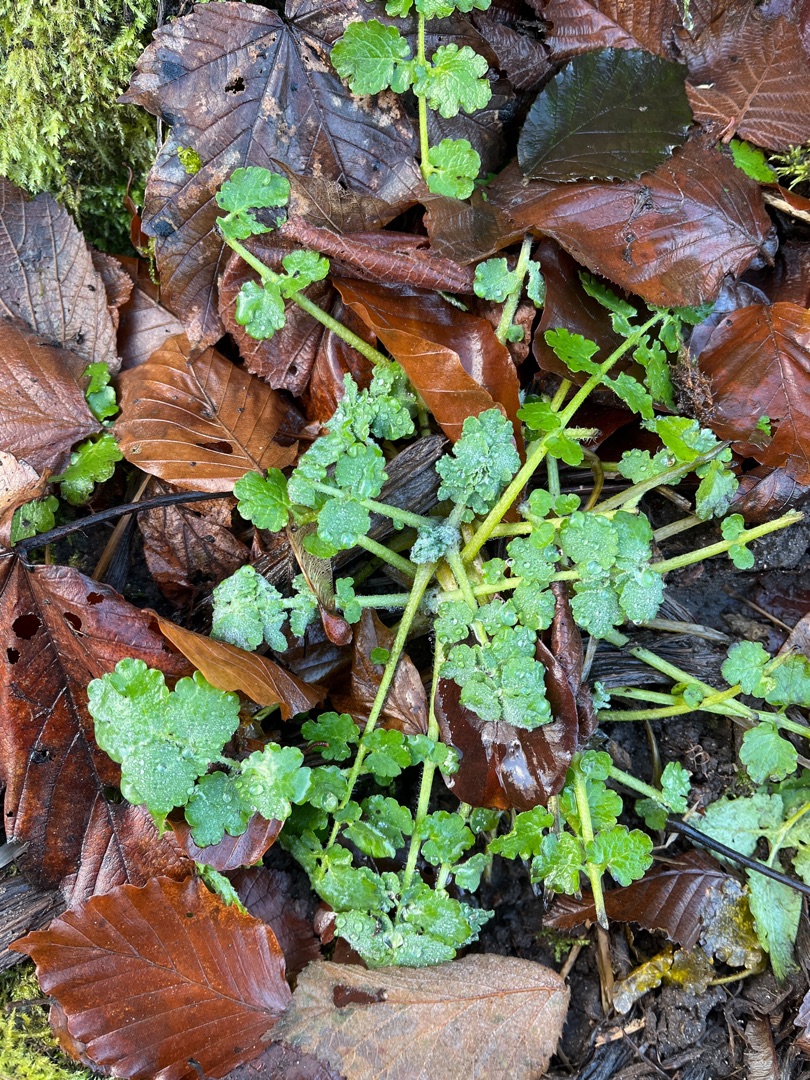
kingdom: Plantae
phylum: Tracheophyta
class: Magnoliopsida
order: Ranunculales
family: Papaveraceae
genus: Chelidonium
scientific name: Chelidonium majus
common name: Svaleurt
